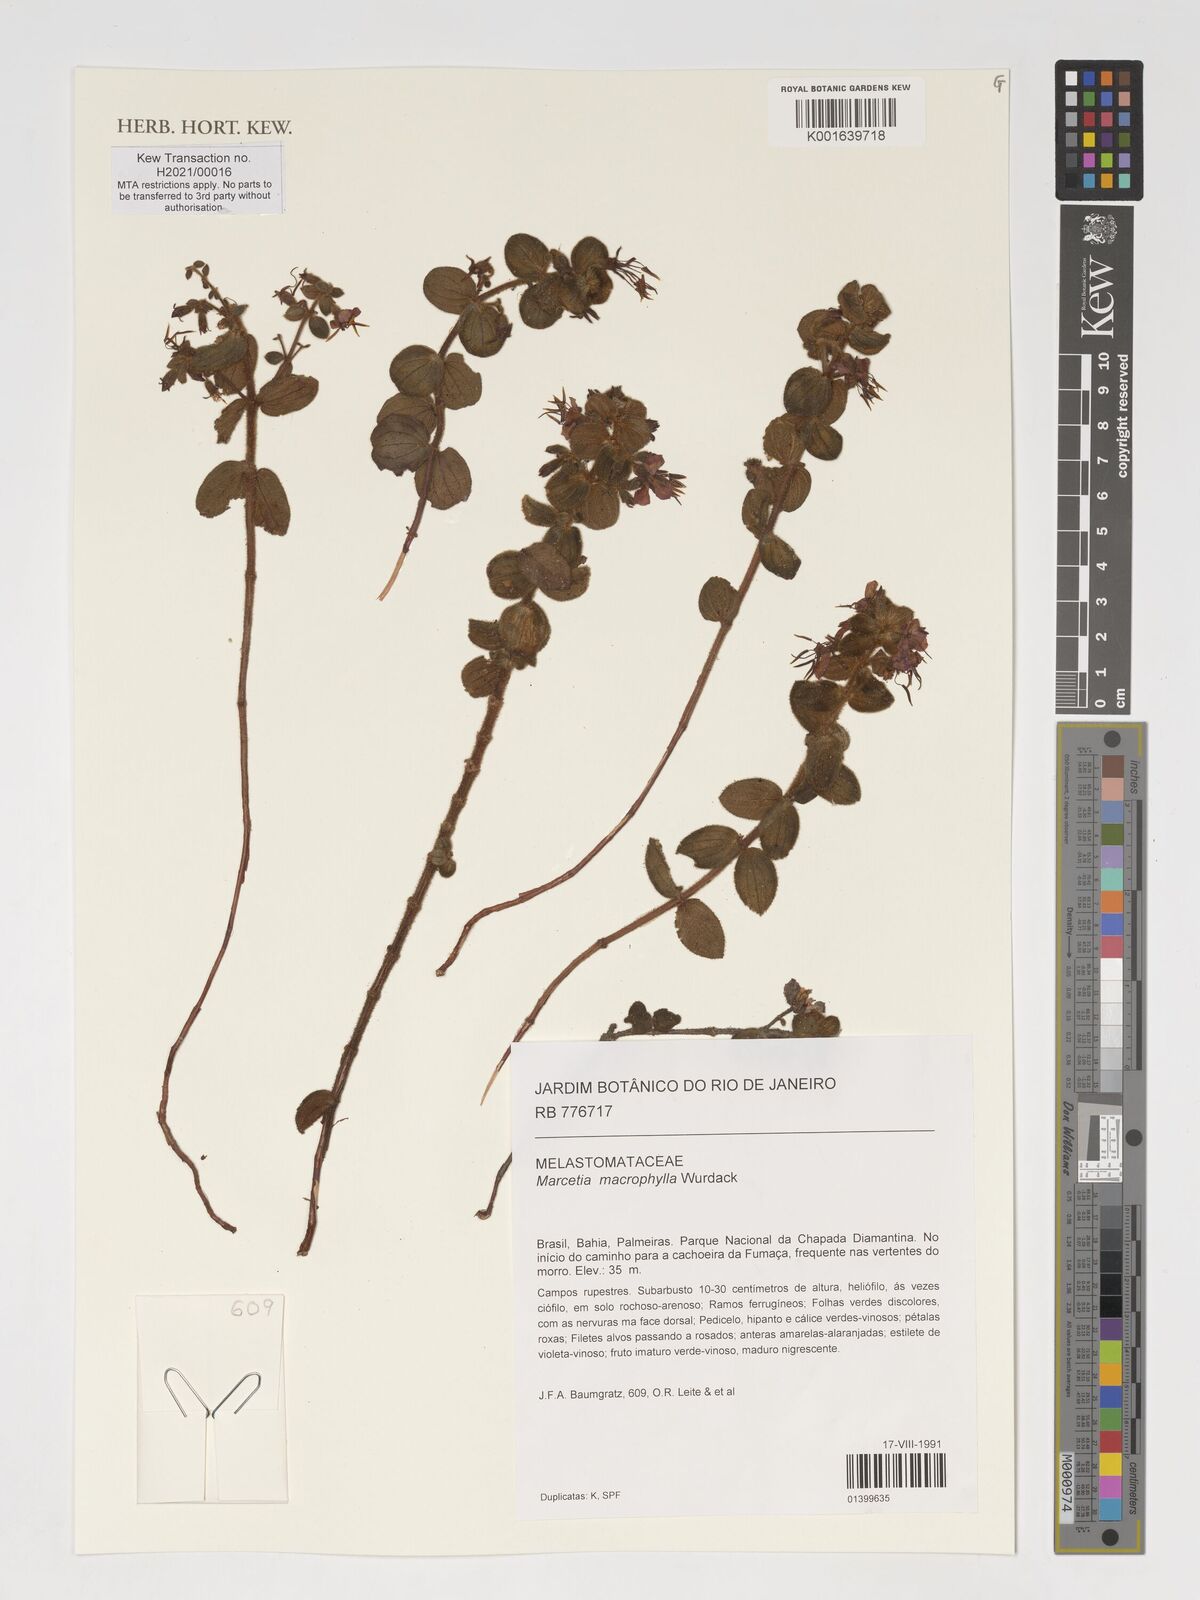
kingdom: Plantae
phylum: Tracheophyta
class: Magnoliopsida
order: Myrtales
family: Melastomataceae
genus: Marcetia
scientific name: Marcetia macrophylla
